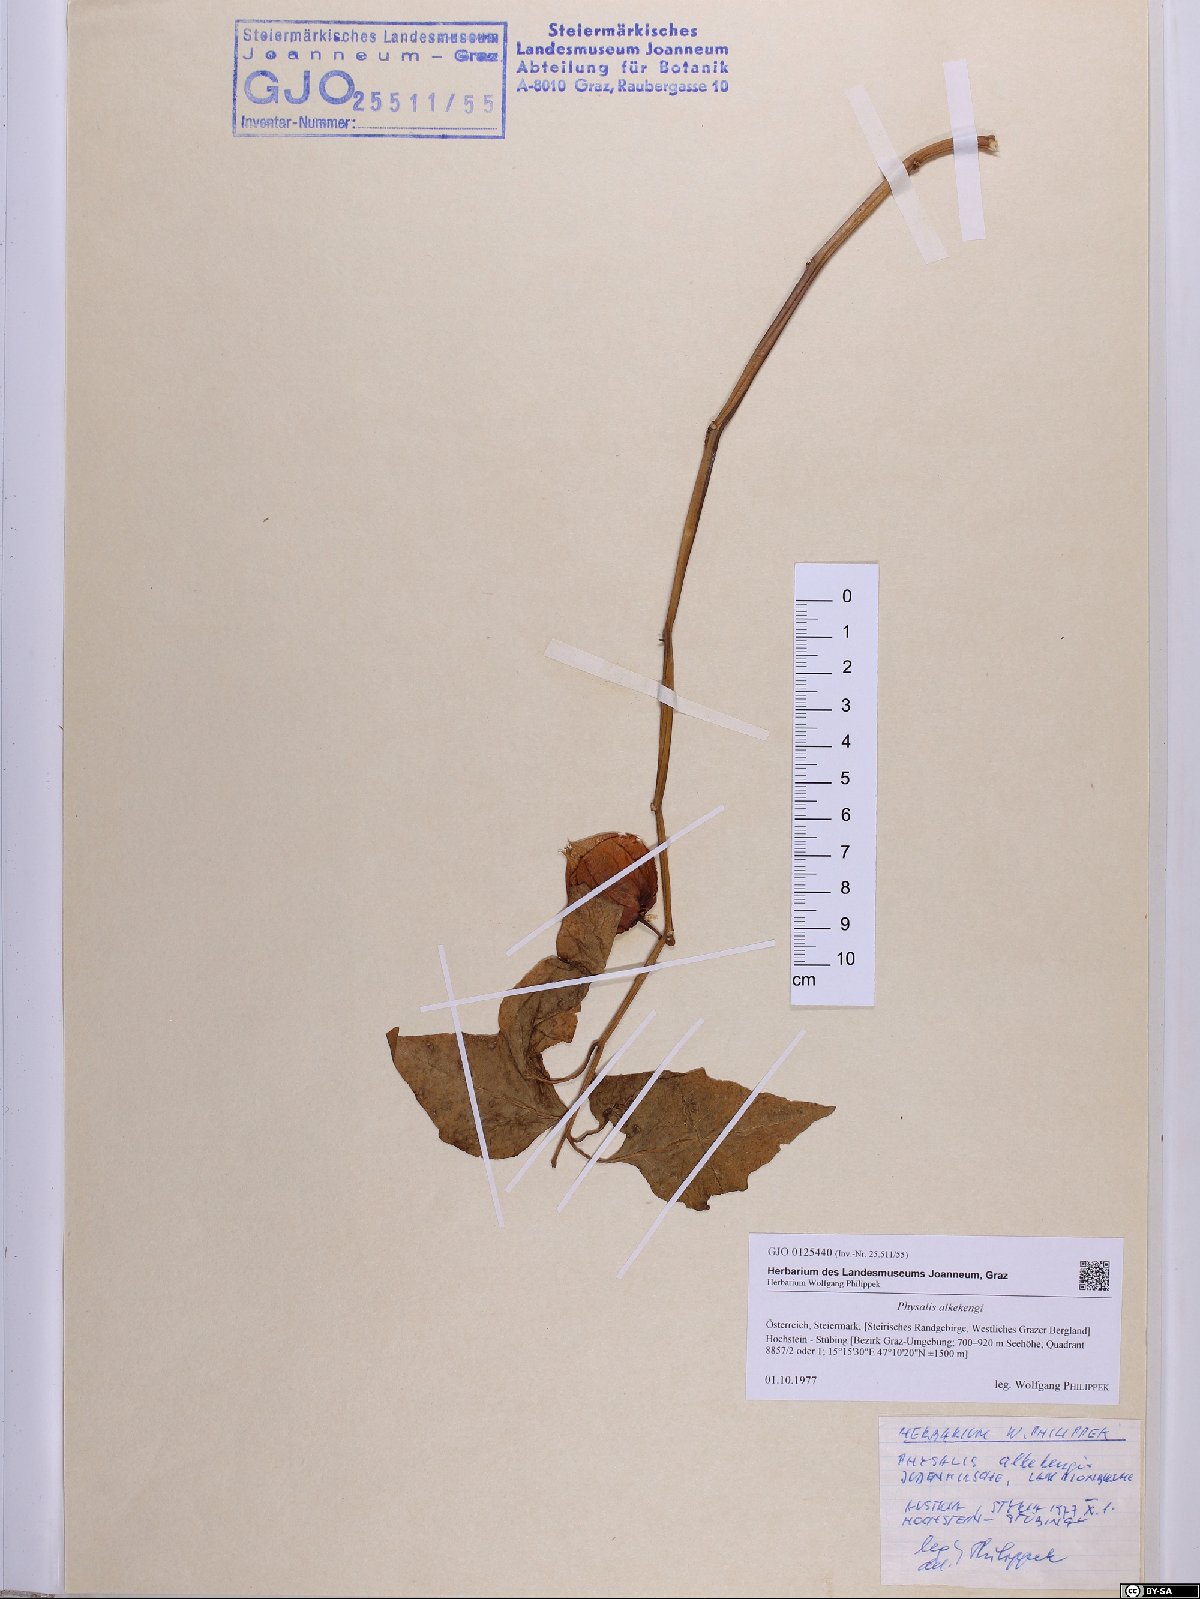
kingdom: Plantae
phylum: Tracheophyta
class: Magnoliopsida
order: Solanales
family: Solanaceae
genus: Alkekengi
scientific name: Alkekengi officinarum
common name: Japanese-lantern
